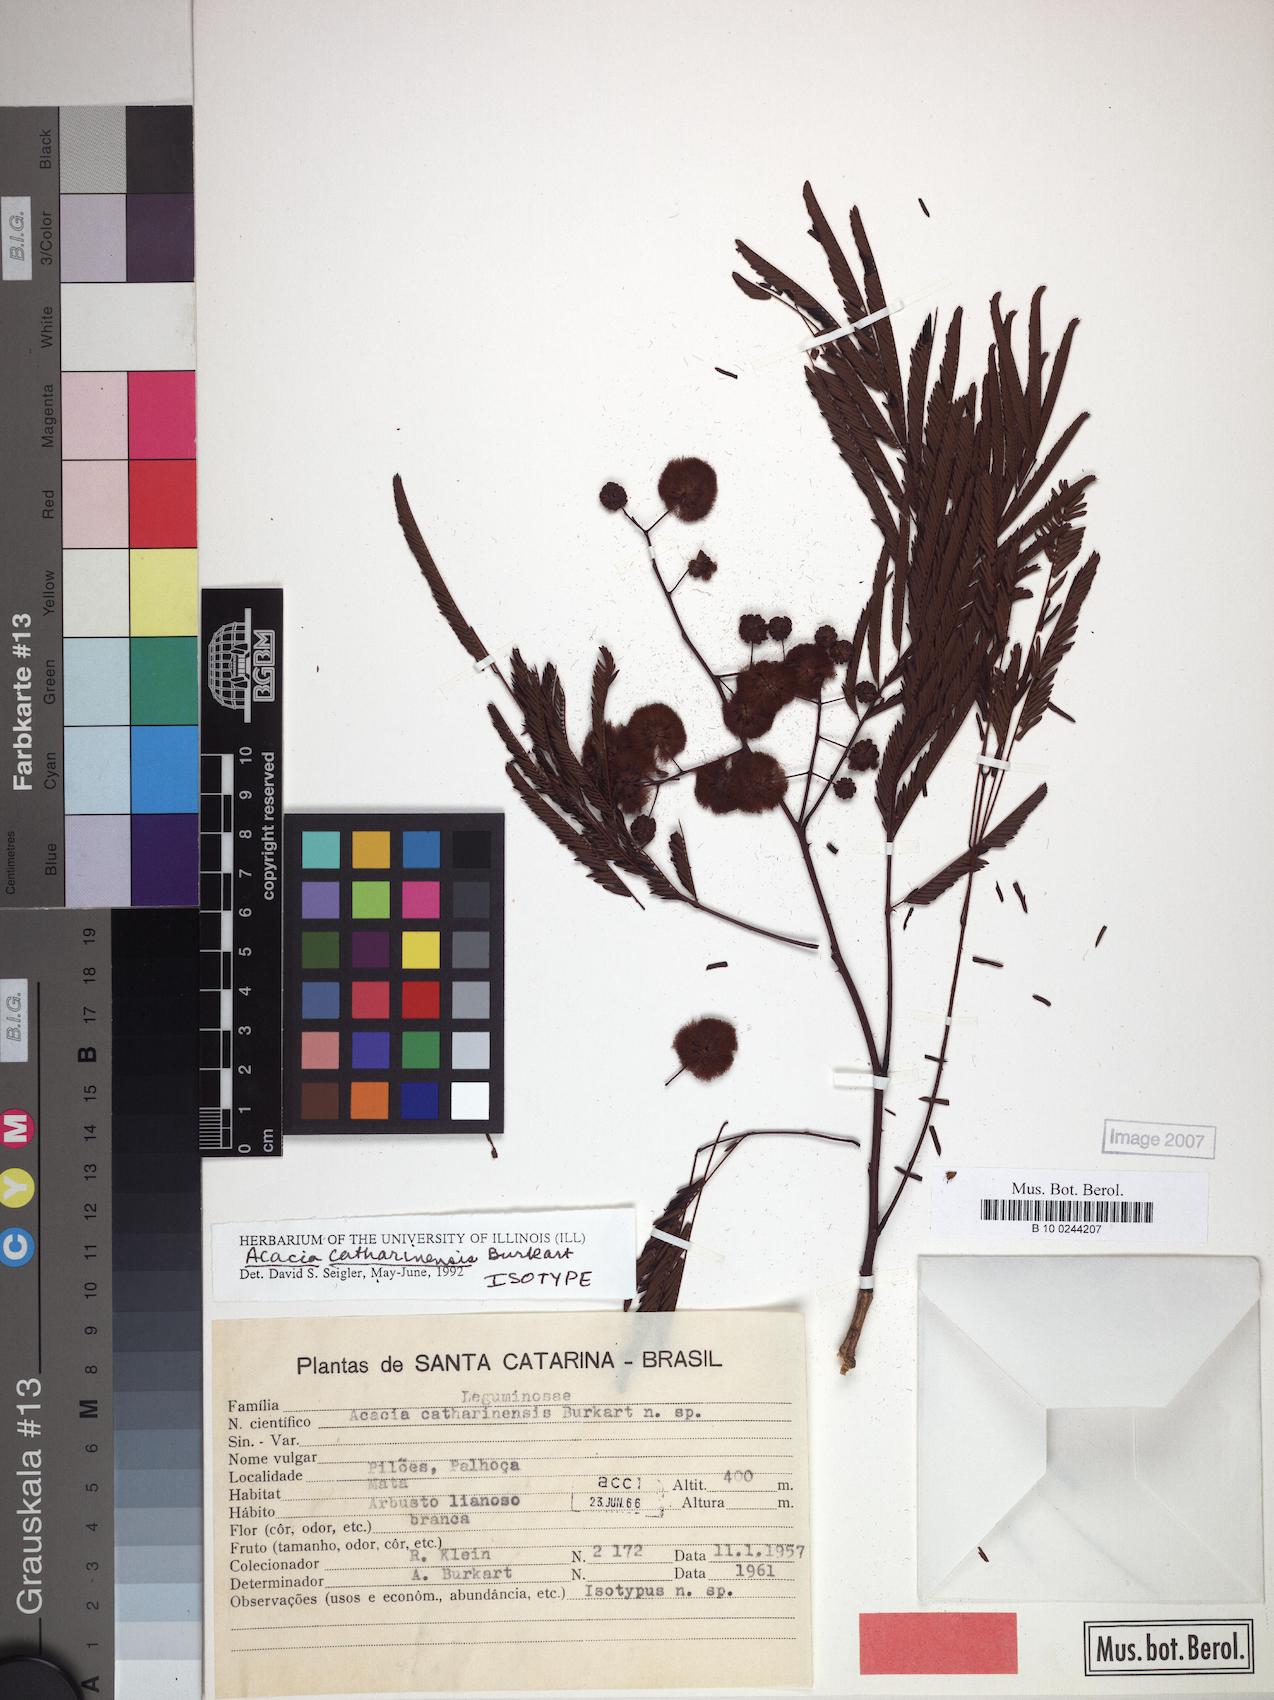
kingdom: Plantae
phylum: Tracheophyta
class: Magnoliopsida
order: Fabales
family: Fabaceae
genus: Senegalia
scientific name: Senegalia catharinensis
